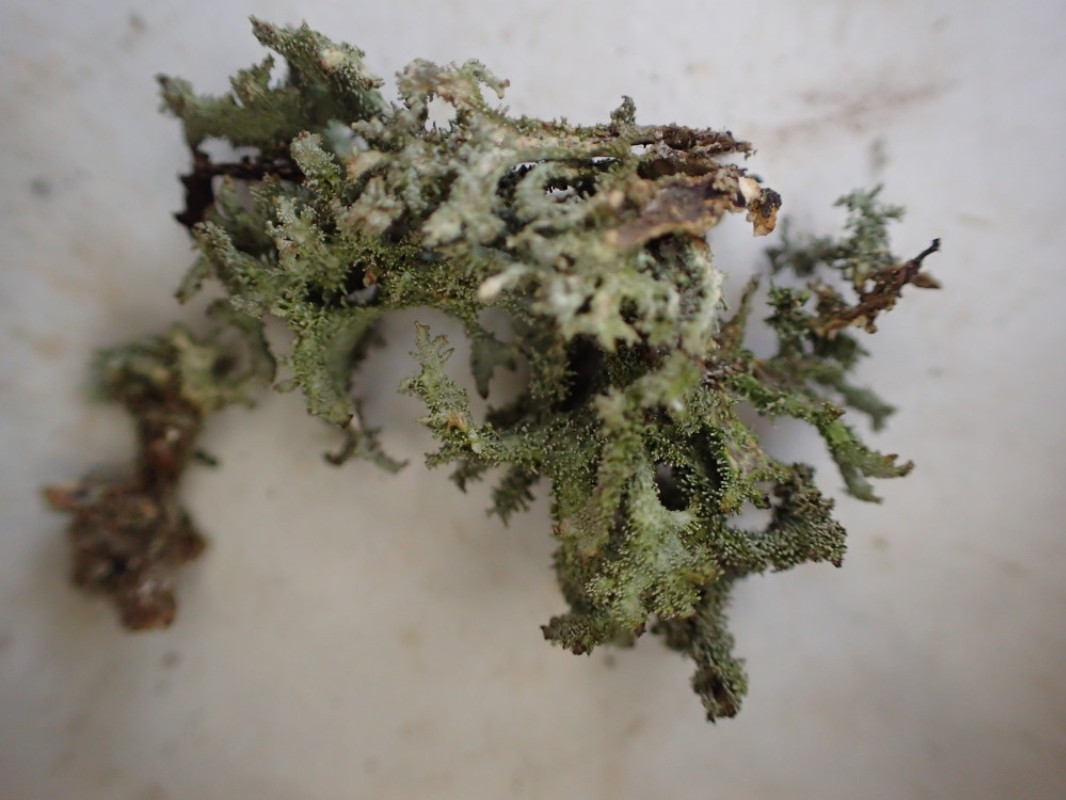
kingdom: Fungi
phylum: Ascomycota
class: Lecanoromycetes
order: Lecanorales
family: Parmeliaceae
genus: Pseudevernia
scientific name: Pseudevernia furfuracea
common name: grå fyrrelav
